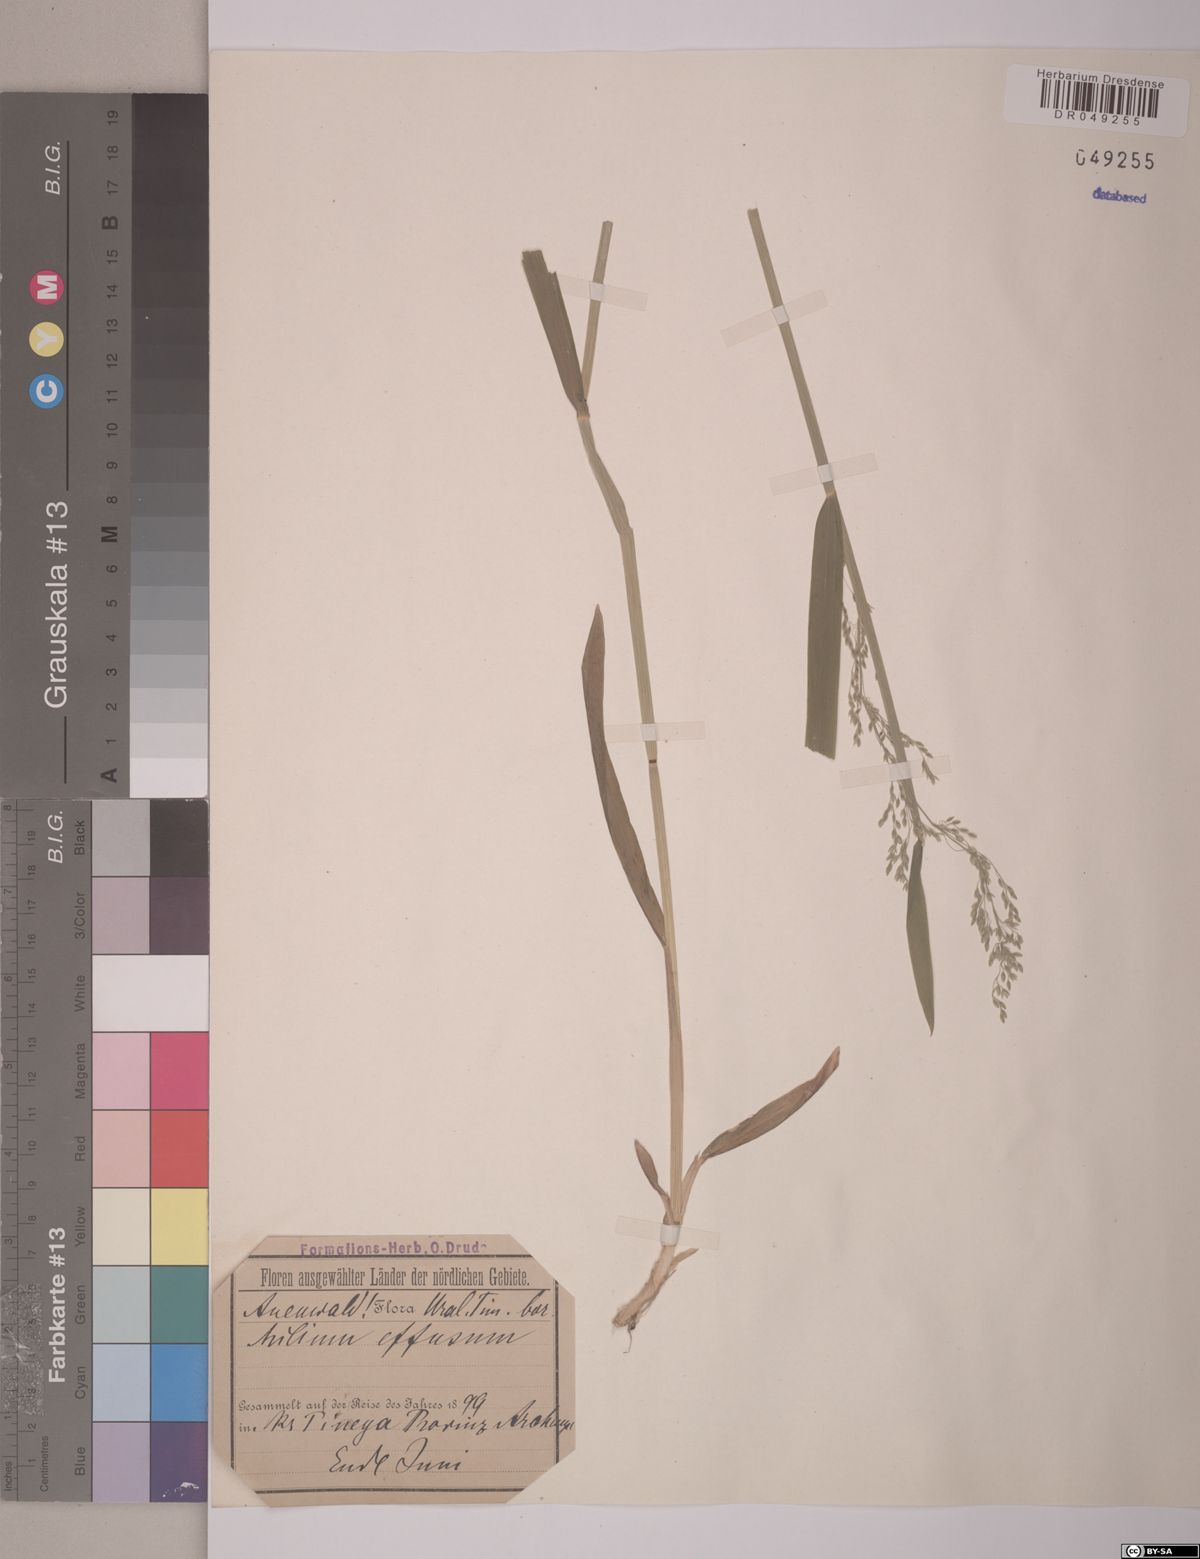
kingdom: Plantae
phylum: Tracheophyta
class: Liliopsida
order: Poales
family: Poaceae
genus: Milium
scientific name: Milium effusum
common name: Wood millet
